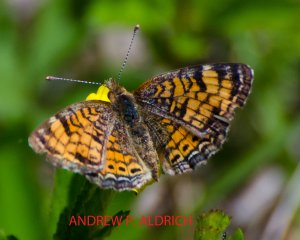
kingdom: Animalia
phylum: Arthropoda
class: Insecta
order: Lepidoptera
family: Nymphalidae
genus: Phyciodes
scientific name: Phyciodes tharos
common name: Pearl Crescent
